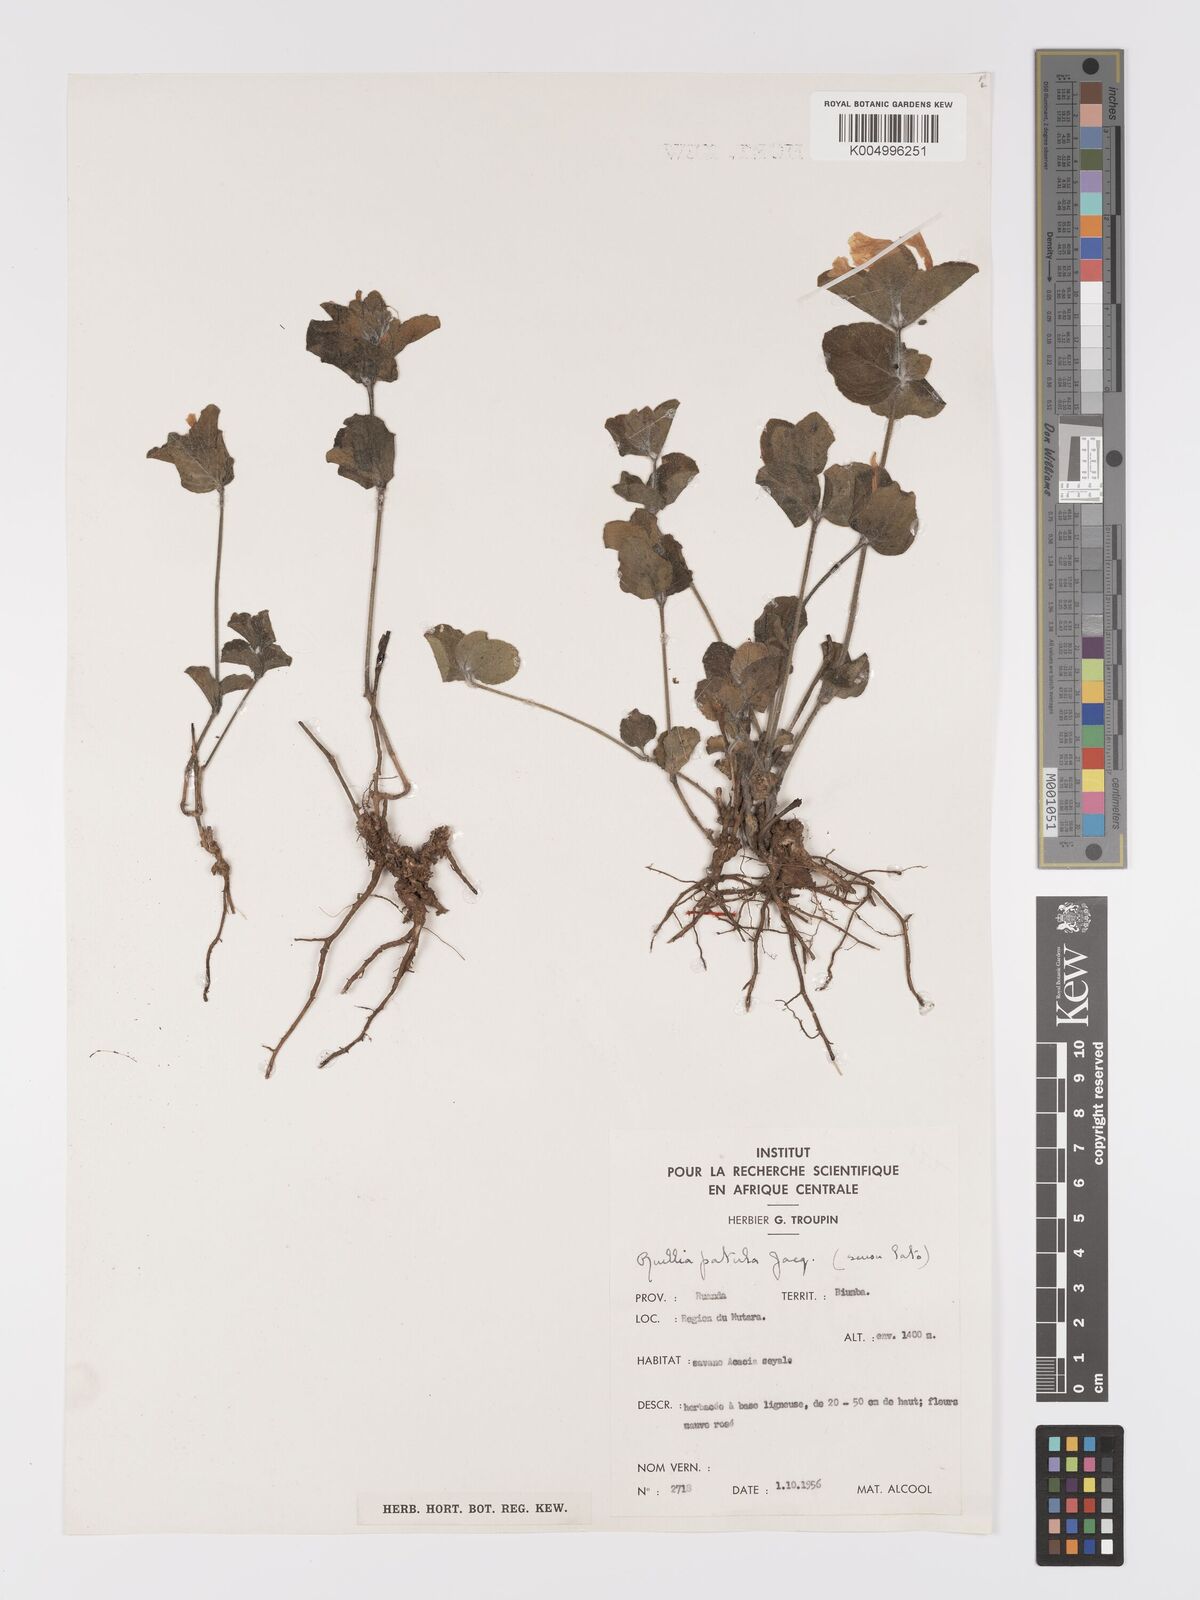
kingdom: Plantae
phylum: Tracheophyta
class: Magnoliopsida
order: Lamiales
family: Acanthaceae
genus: Ruellia
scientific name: Ruellia patula
